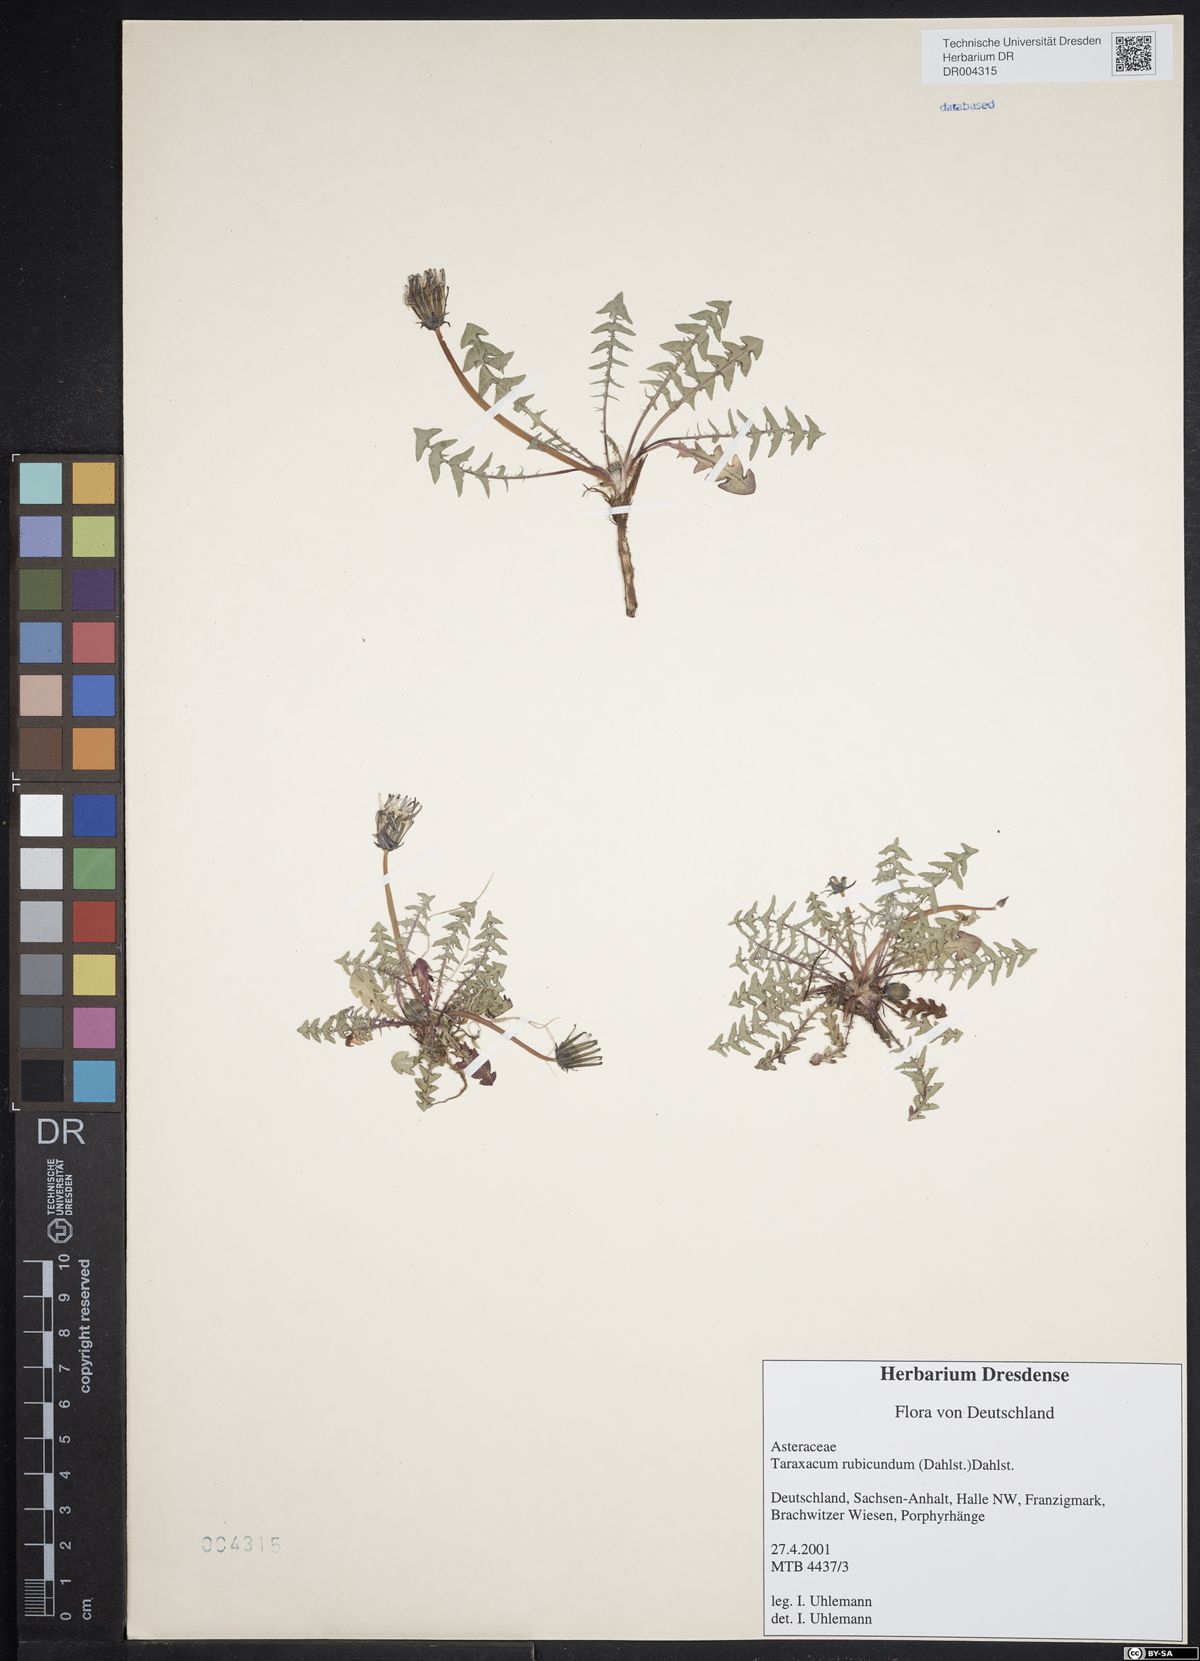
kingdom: Plantae
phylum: Tracheophyta
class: Magnoliopsida
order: Asterales
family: Asteraceae
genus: Taraxacum
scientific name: Taraxacum rubicundum
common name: Ruddy dandelion
